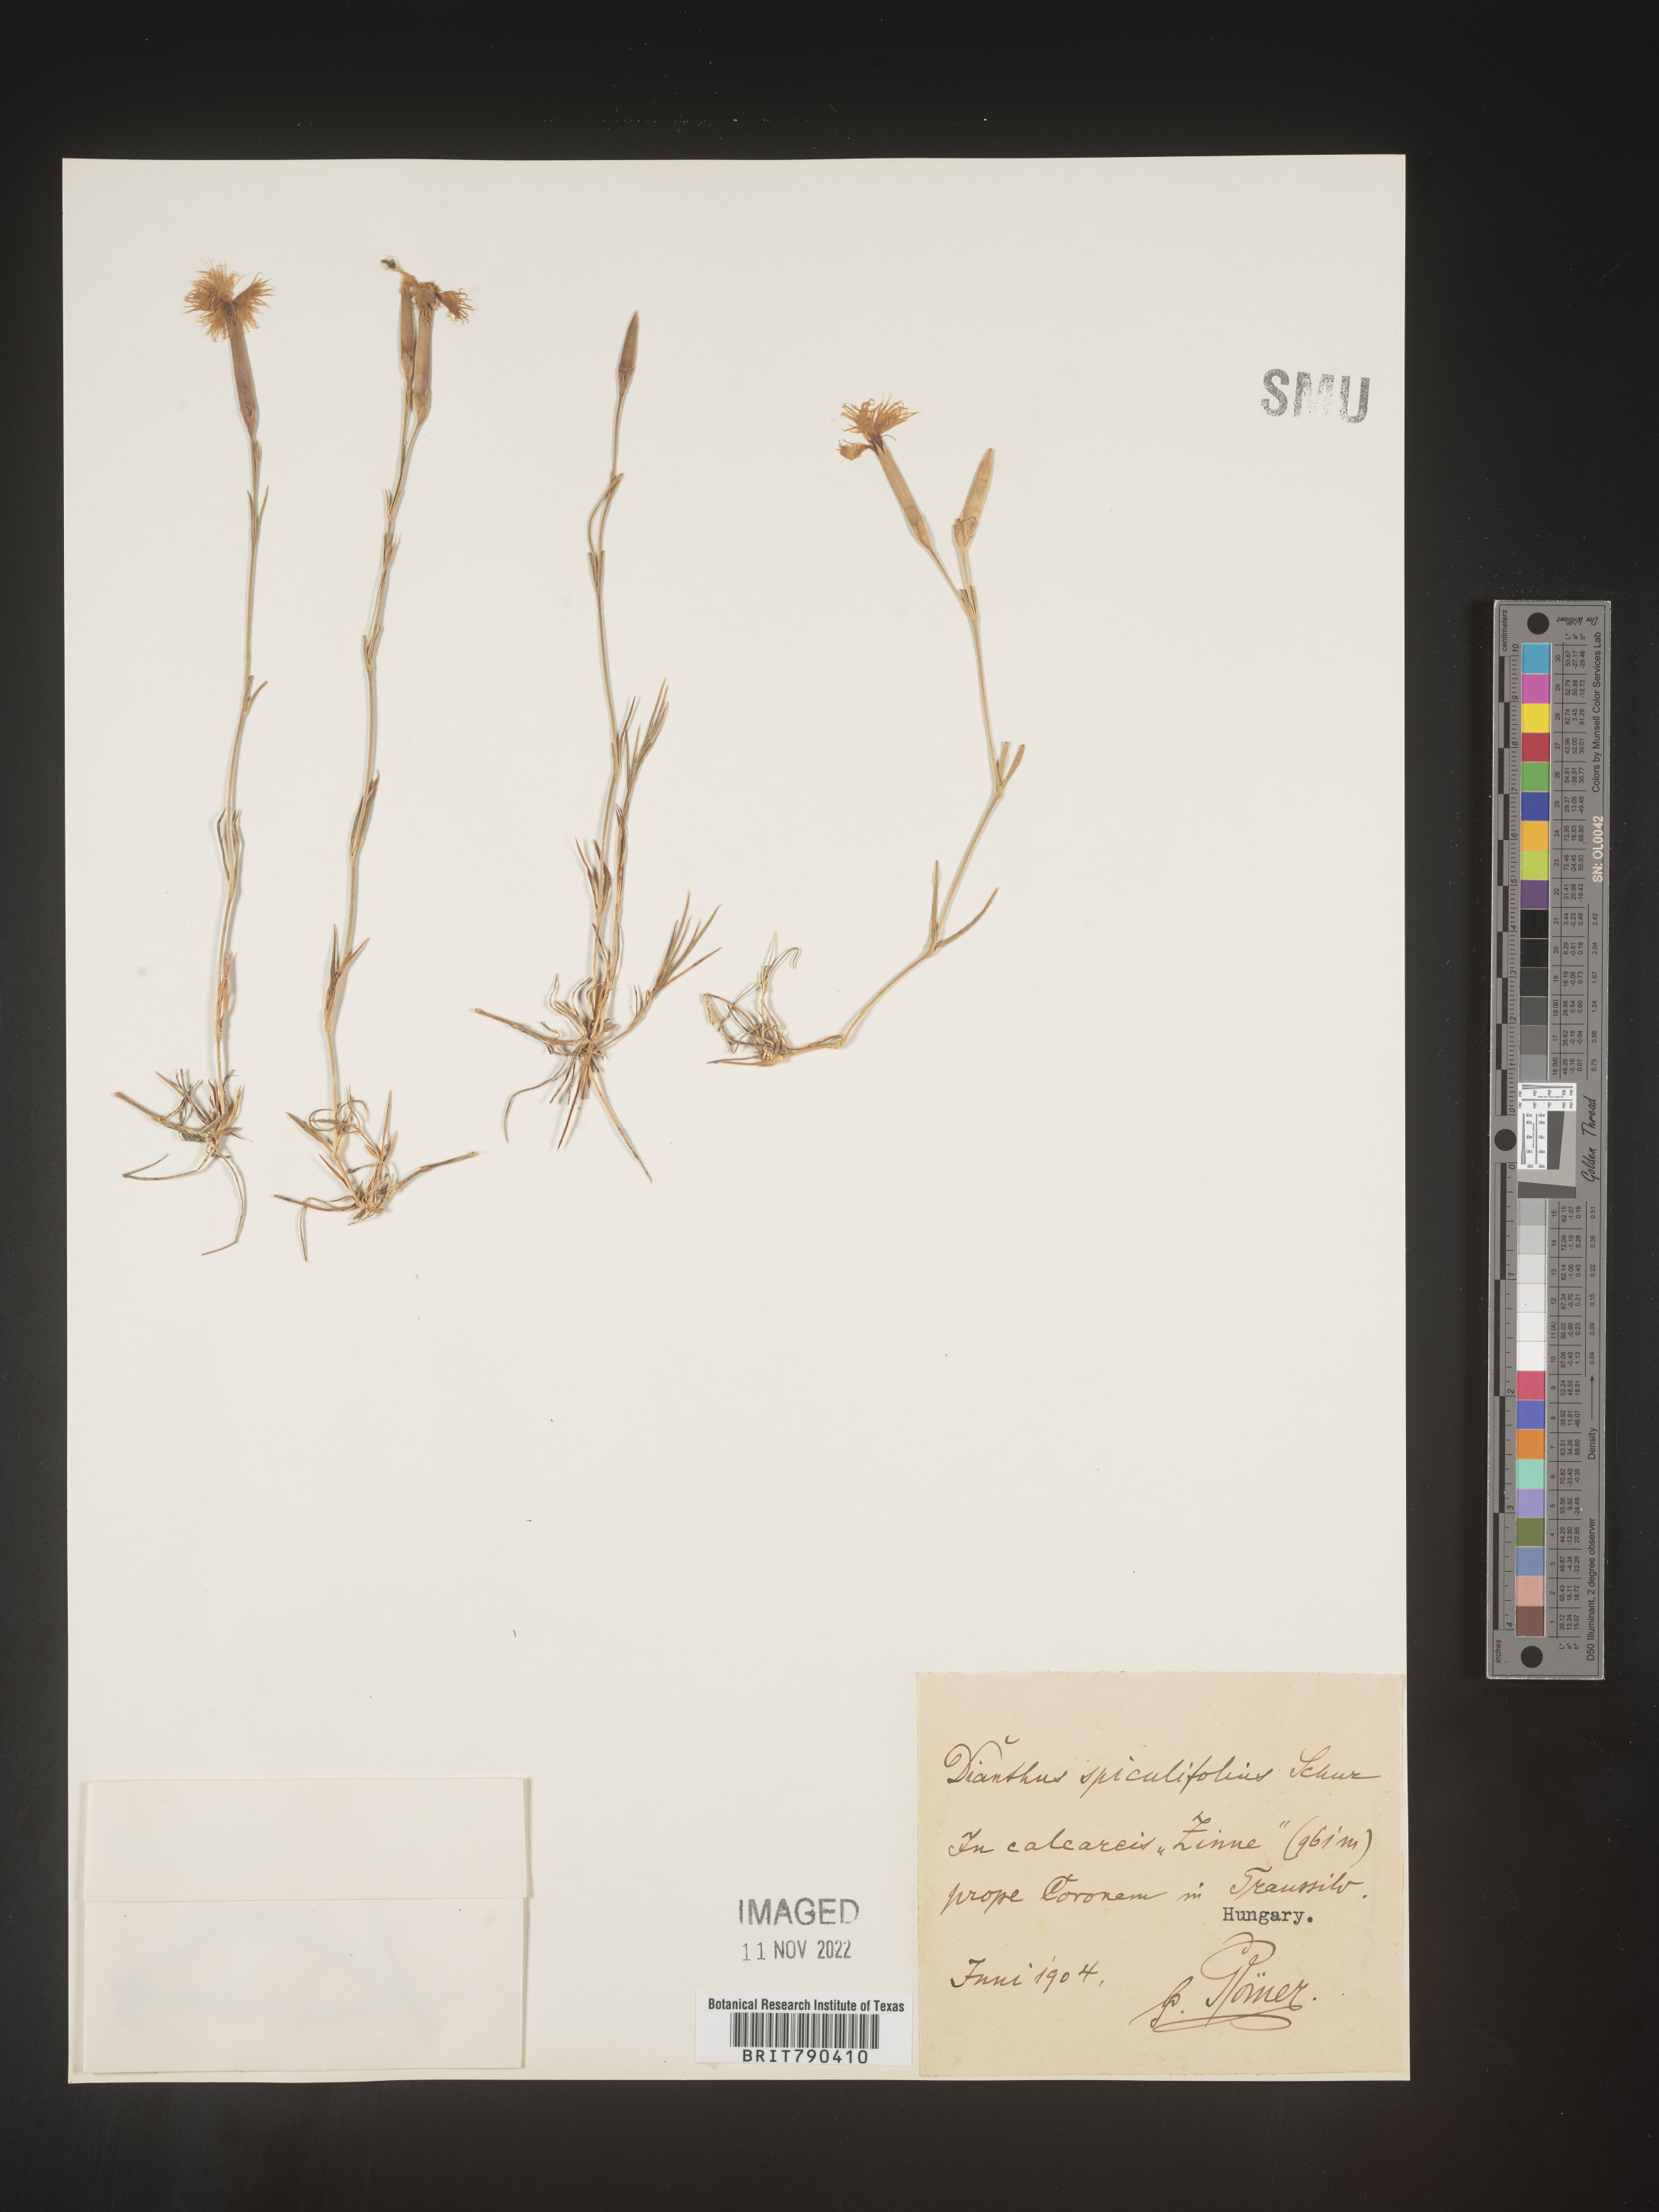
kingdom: Plantae
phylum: Tracheophyta
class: Magnoliopsida
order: Caryophyllales
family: Caryophyllaceae
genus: Dianthus
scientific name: Dianthus
